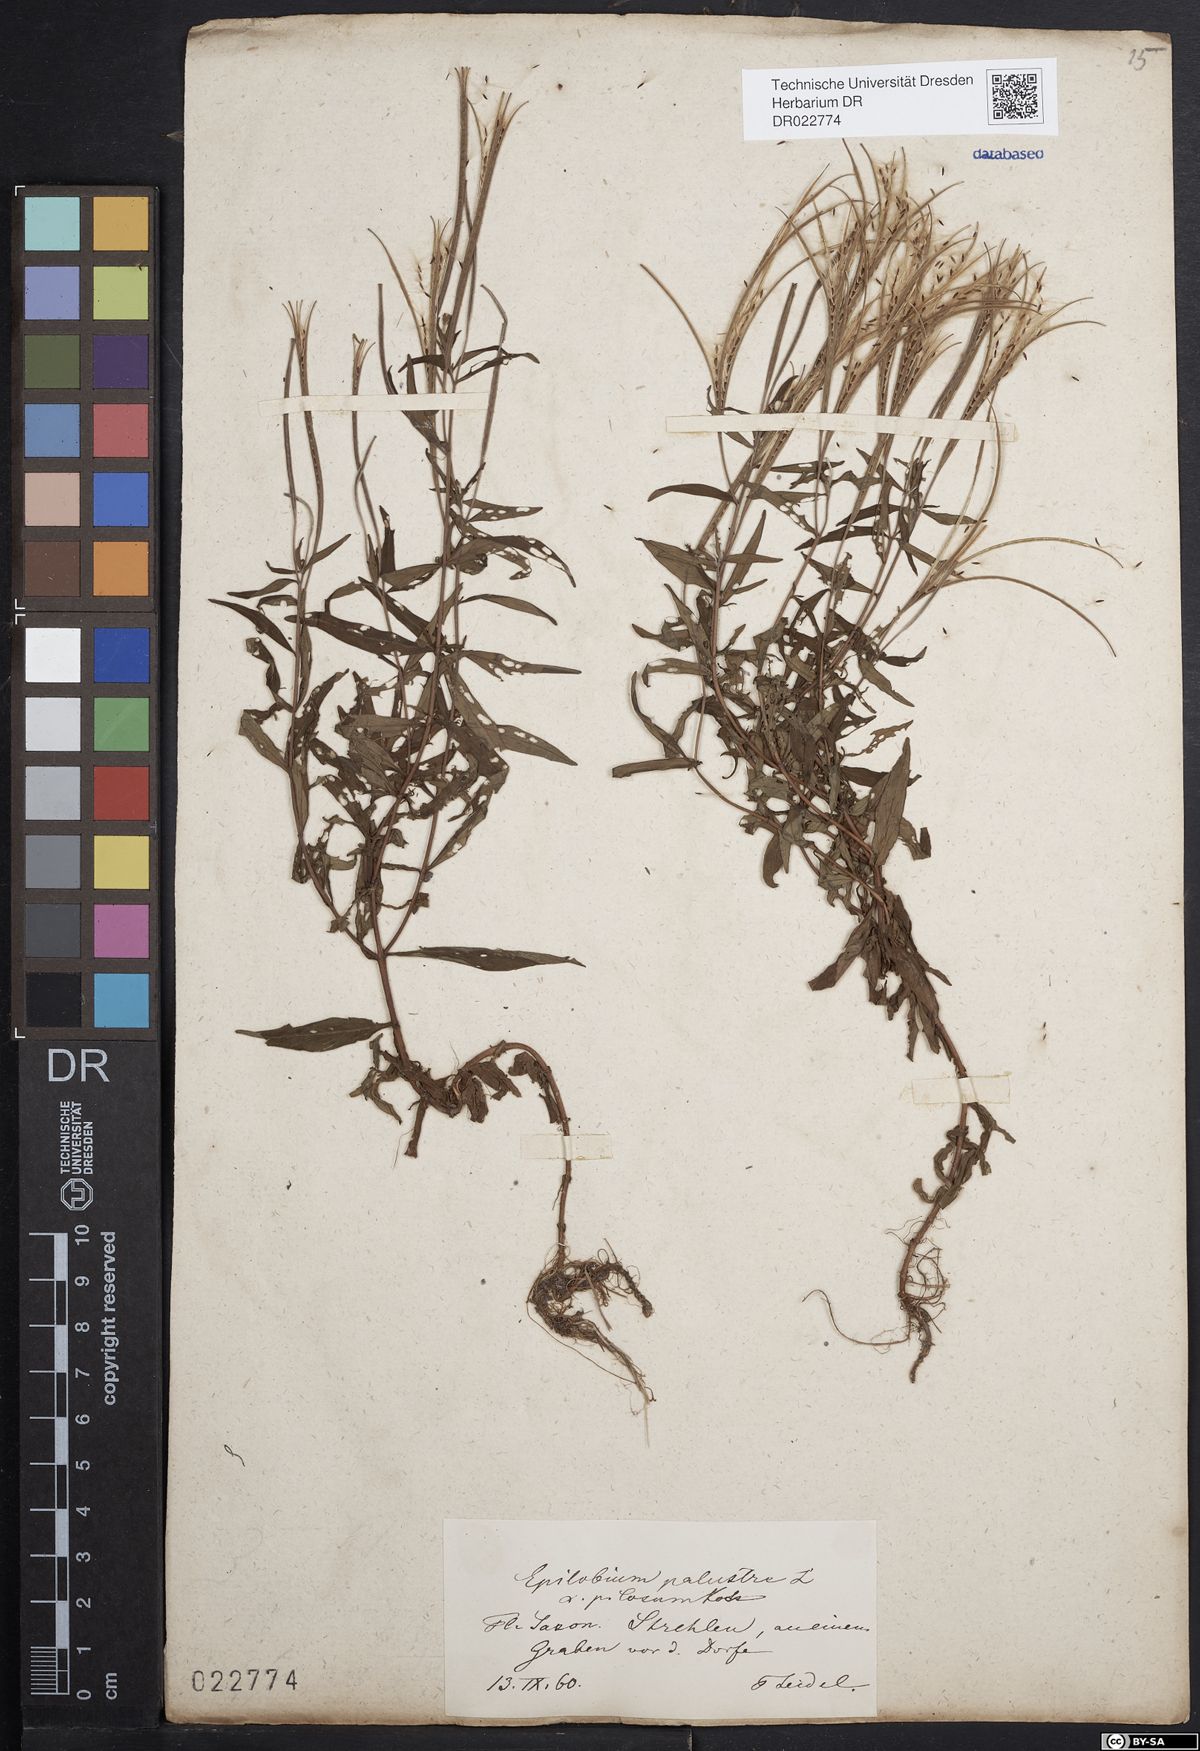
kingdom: Plantae
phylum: Tracheophyta
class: Magnoliopsida
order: Myrtales
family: Onagraceae
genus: Epilobium
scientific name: Epilobium palustre
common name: Marsh willowherb
